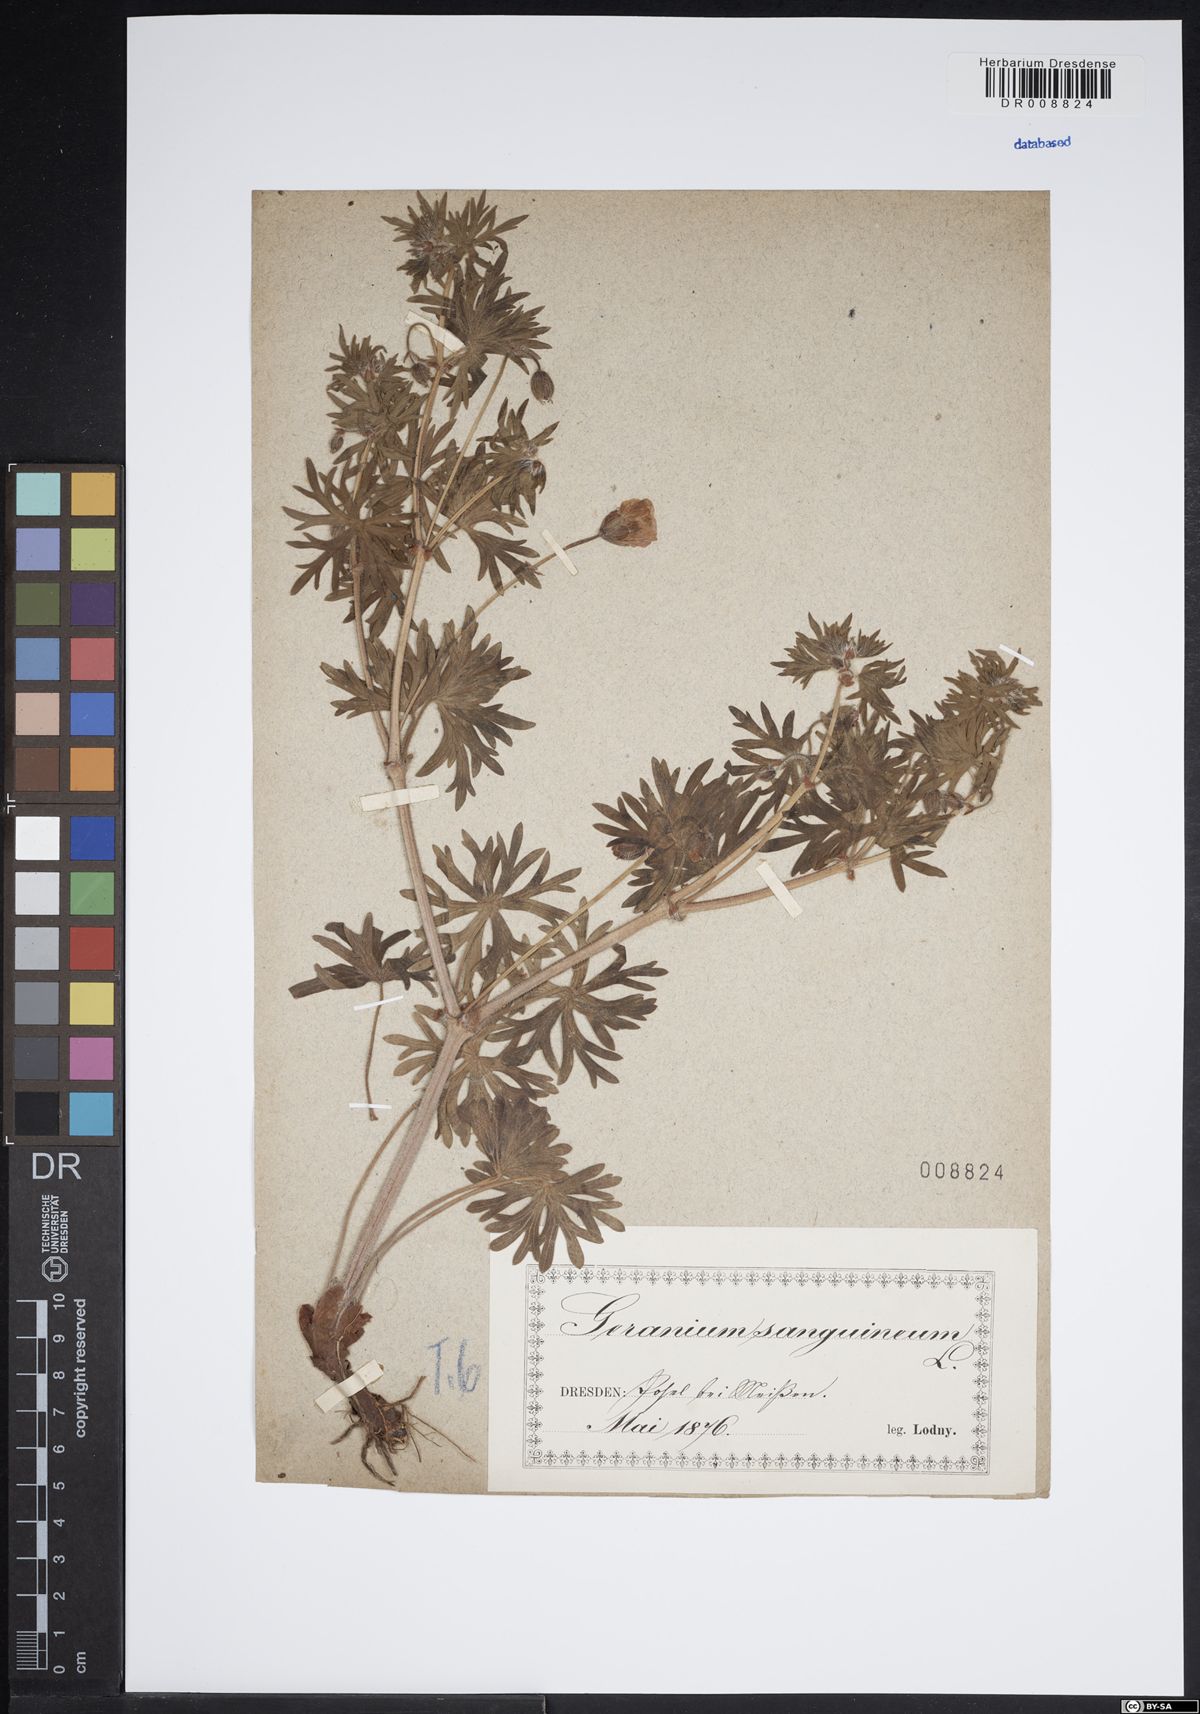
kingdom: Plantae
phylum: Tracheophyta
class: Magnoliopsida
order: Geraniales
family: Geraniaceae
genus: Geranium
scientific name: Geranium sanguineum
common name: Bloody crane's-bill
